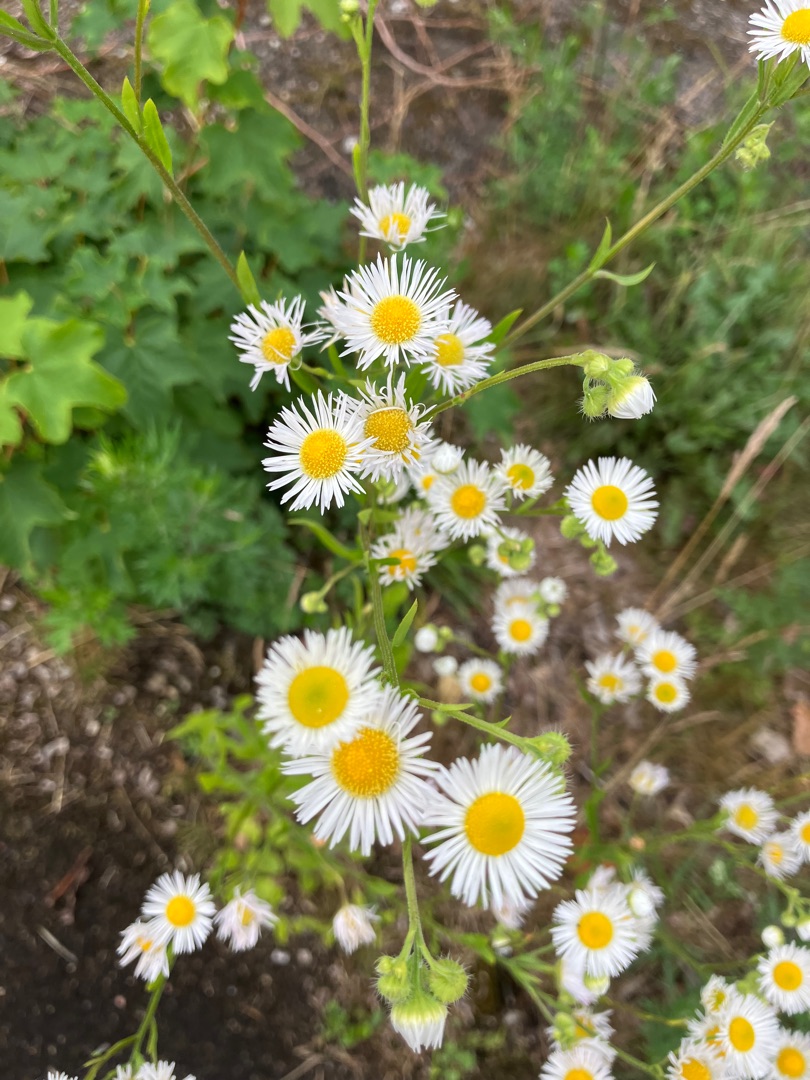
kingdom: Plantae
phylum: Tracheophyta
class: Magnoliopsida
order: Asterales
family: Asteraceae
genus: Erigeron
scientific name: Erigeron strigosus
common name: Hvid smalstråle
